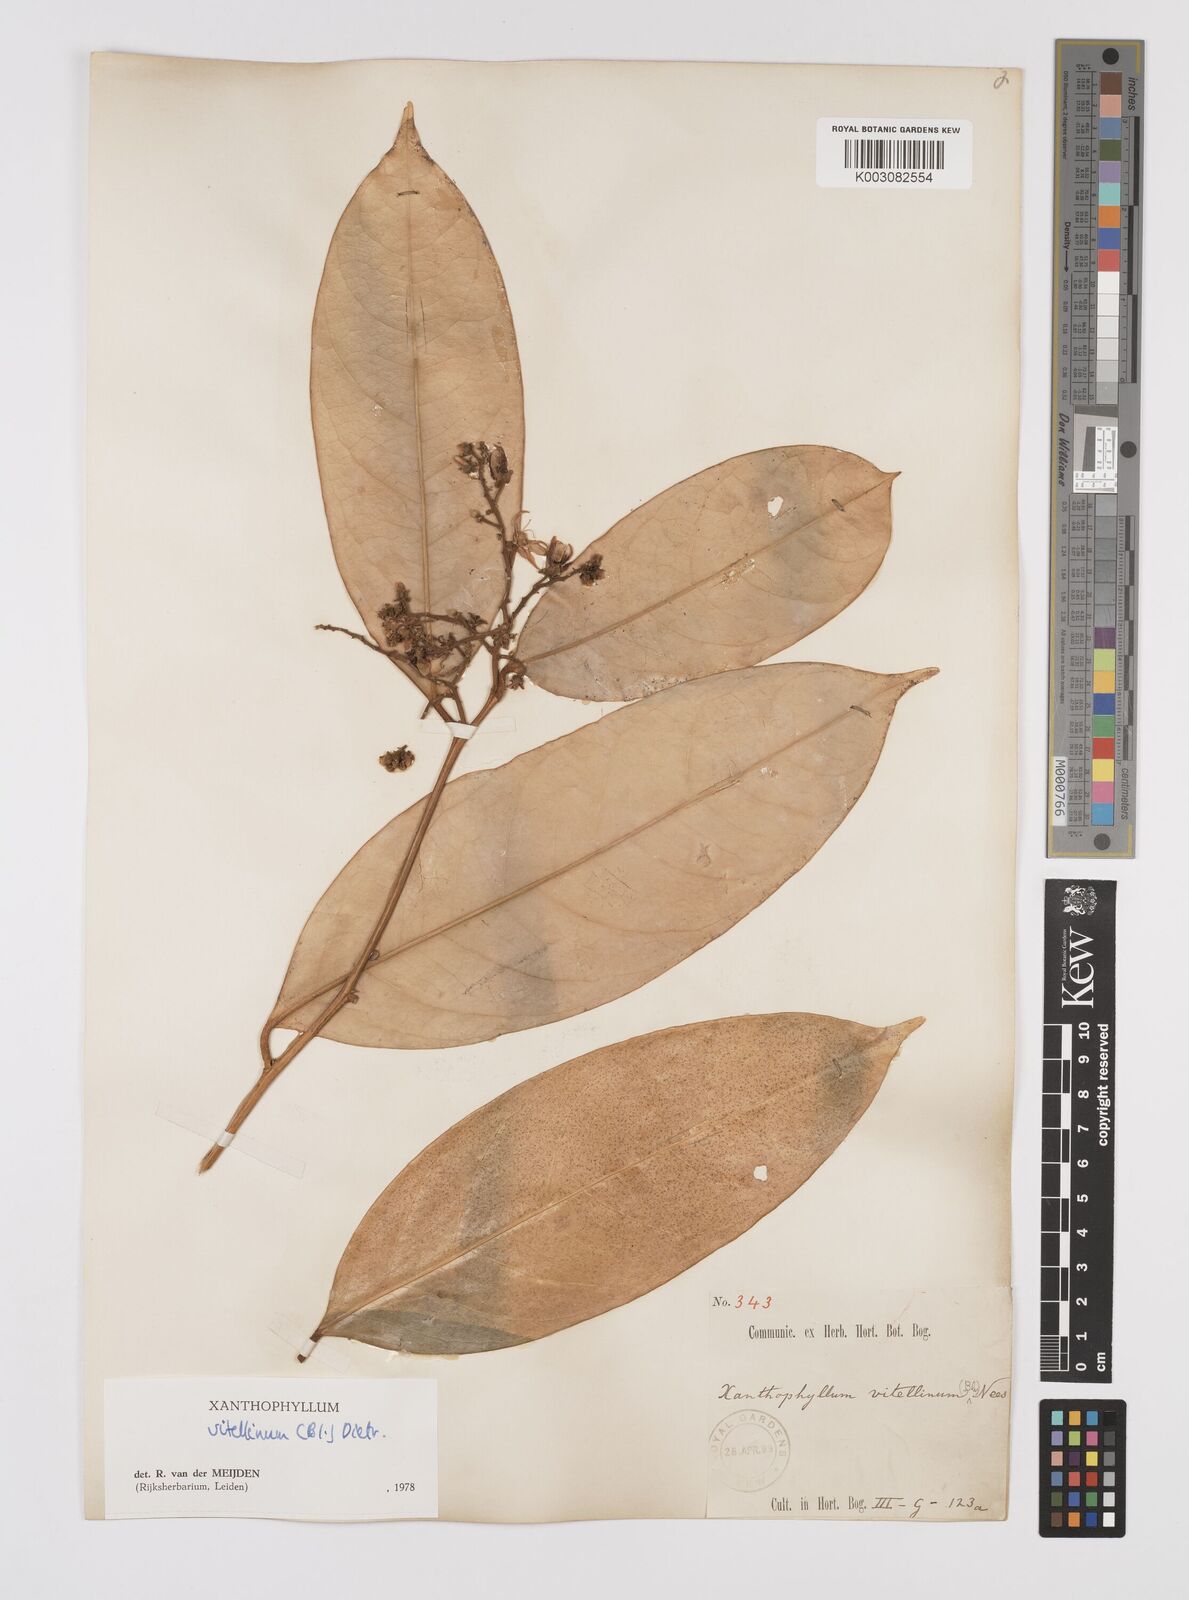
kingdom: Plantae
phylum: Tracheophyta
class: Magnoliopsida
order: Fabales
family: Polygalaceae
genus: Xanthophyllum
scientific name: Xanthophyllum vitellinum
